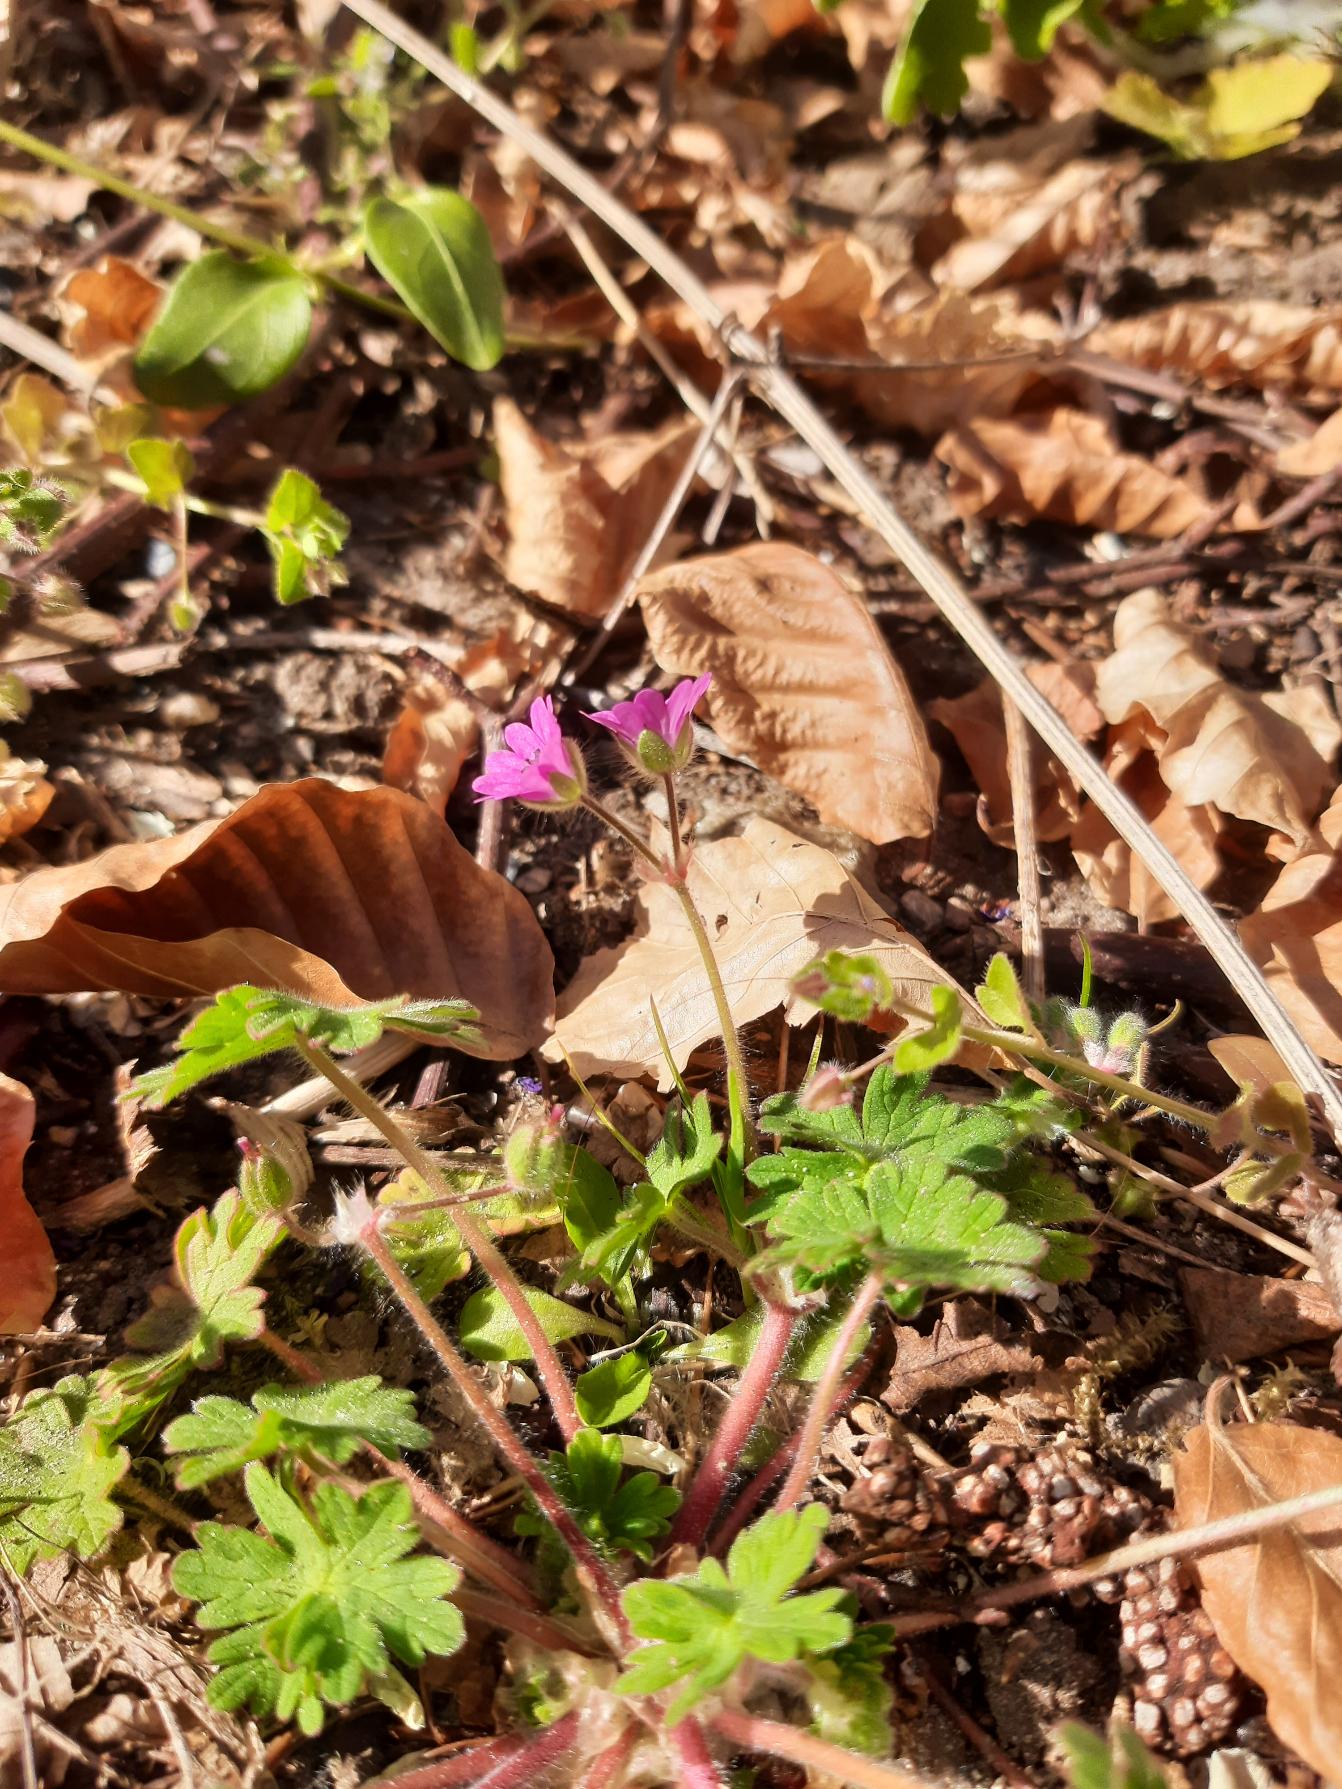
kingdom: Plantae
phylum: Tracheophyta
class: Magnoliopsida
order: Geraniales
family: Geraniaceae
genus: Geranium
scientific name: Geranium molle
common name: Blød storkenæb
